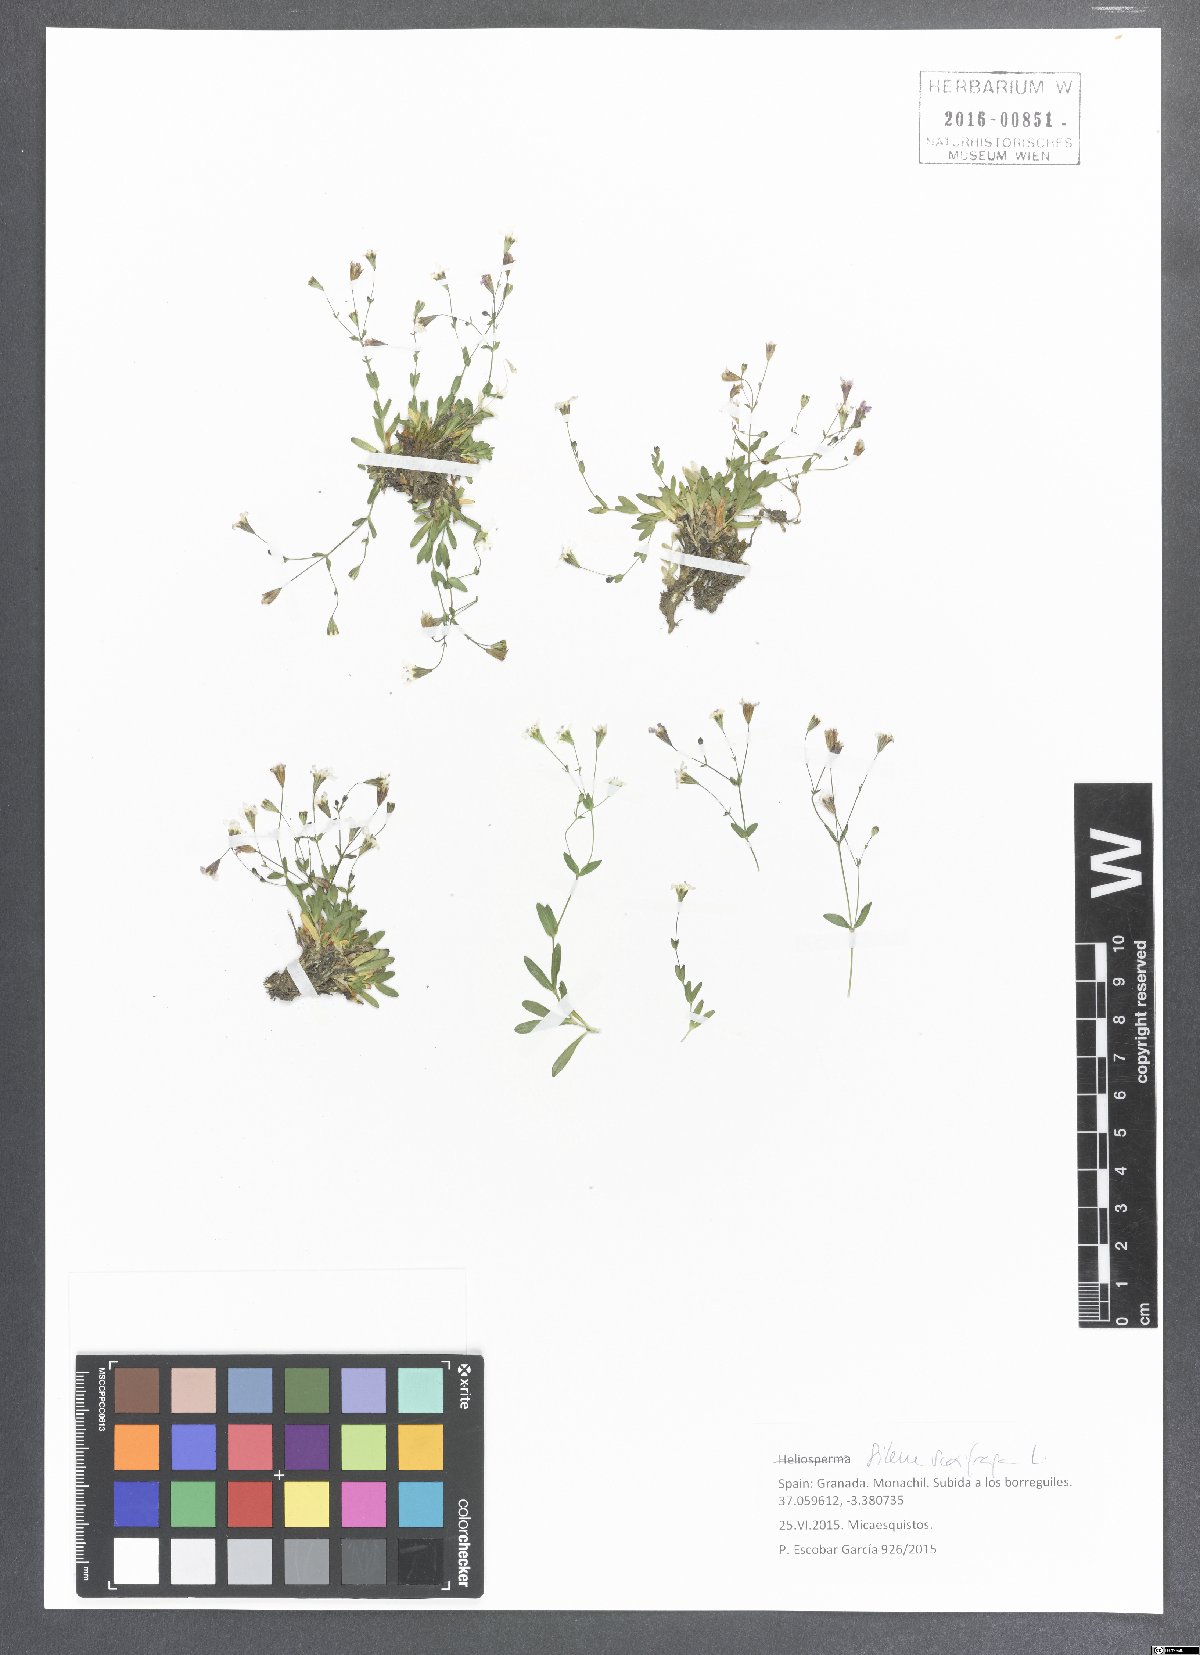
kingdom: Plantae
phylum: Tracheophyta
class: Magnoliopsida
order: Caryophyllales
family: Caryophyllaceae
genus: Silene
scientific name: Silene saxifraga
